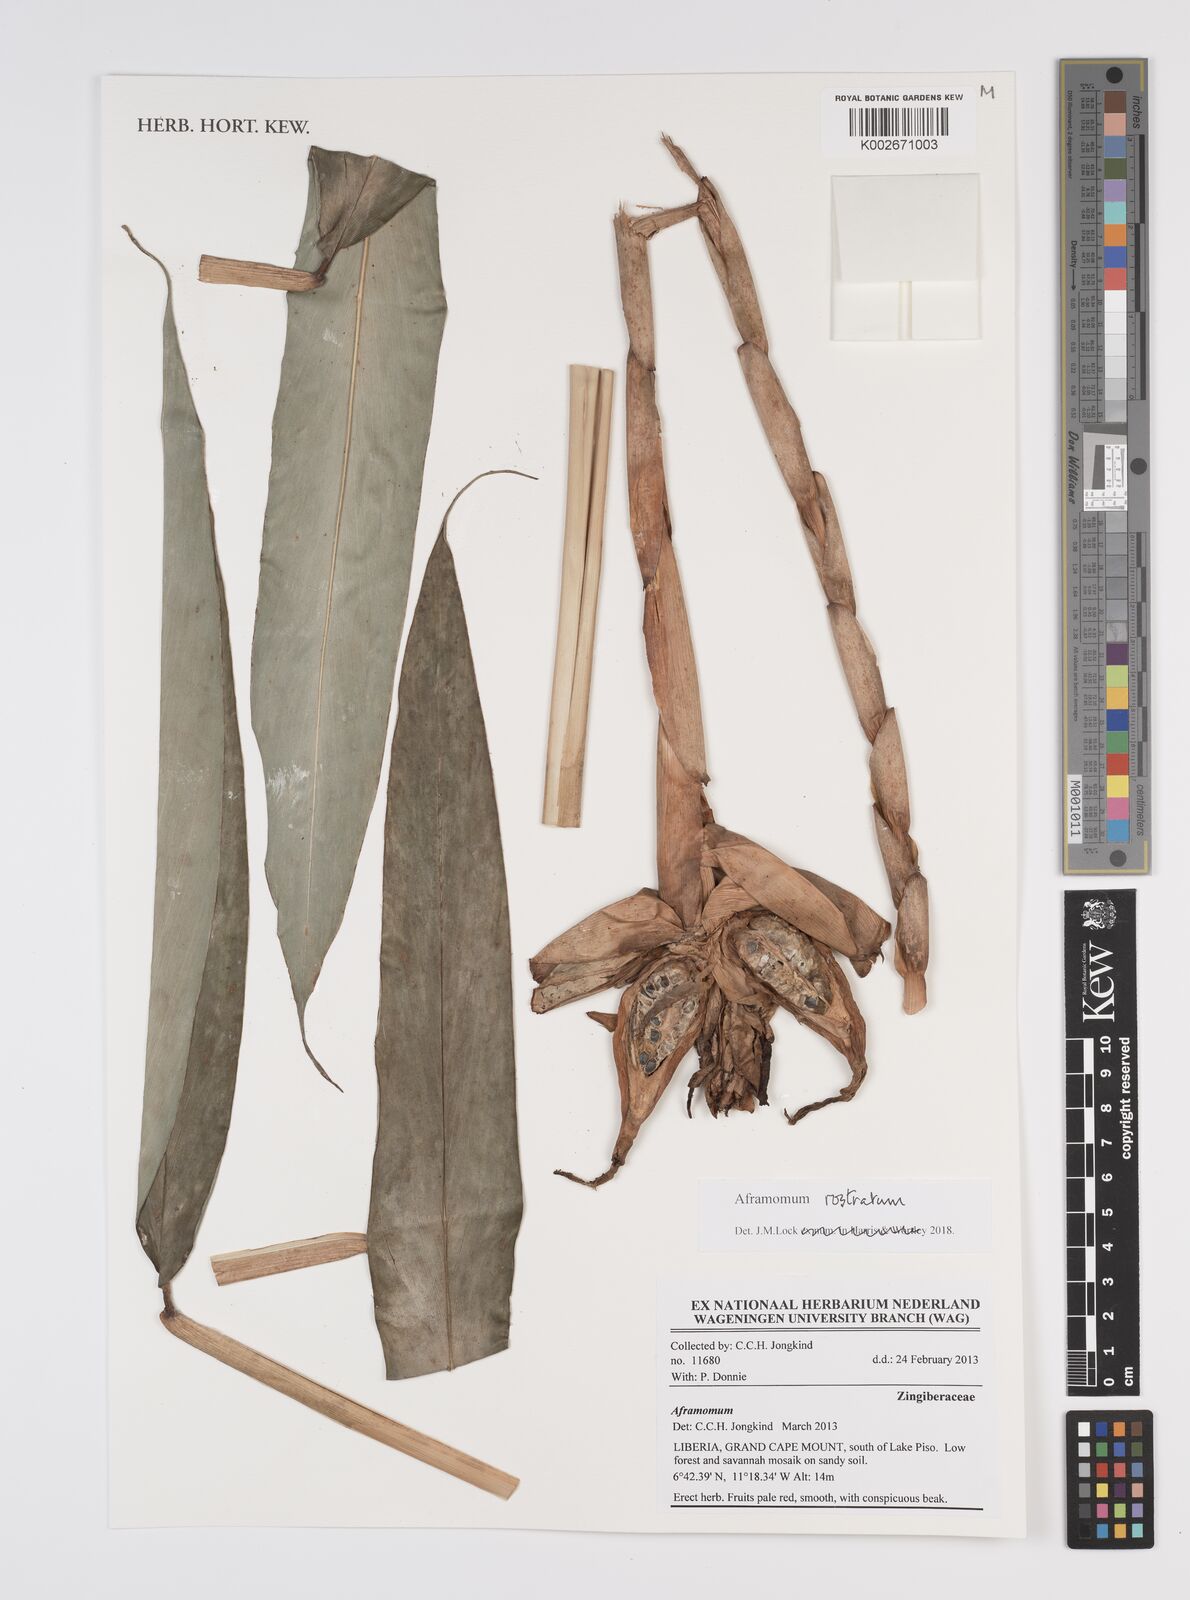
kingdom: Plantae
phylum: Tracheophyta
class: Liliopsida
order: Zingiberales
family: Zingiberaceae
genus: Aframomum
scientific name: Aframomum rostratum
